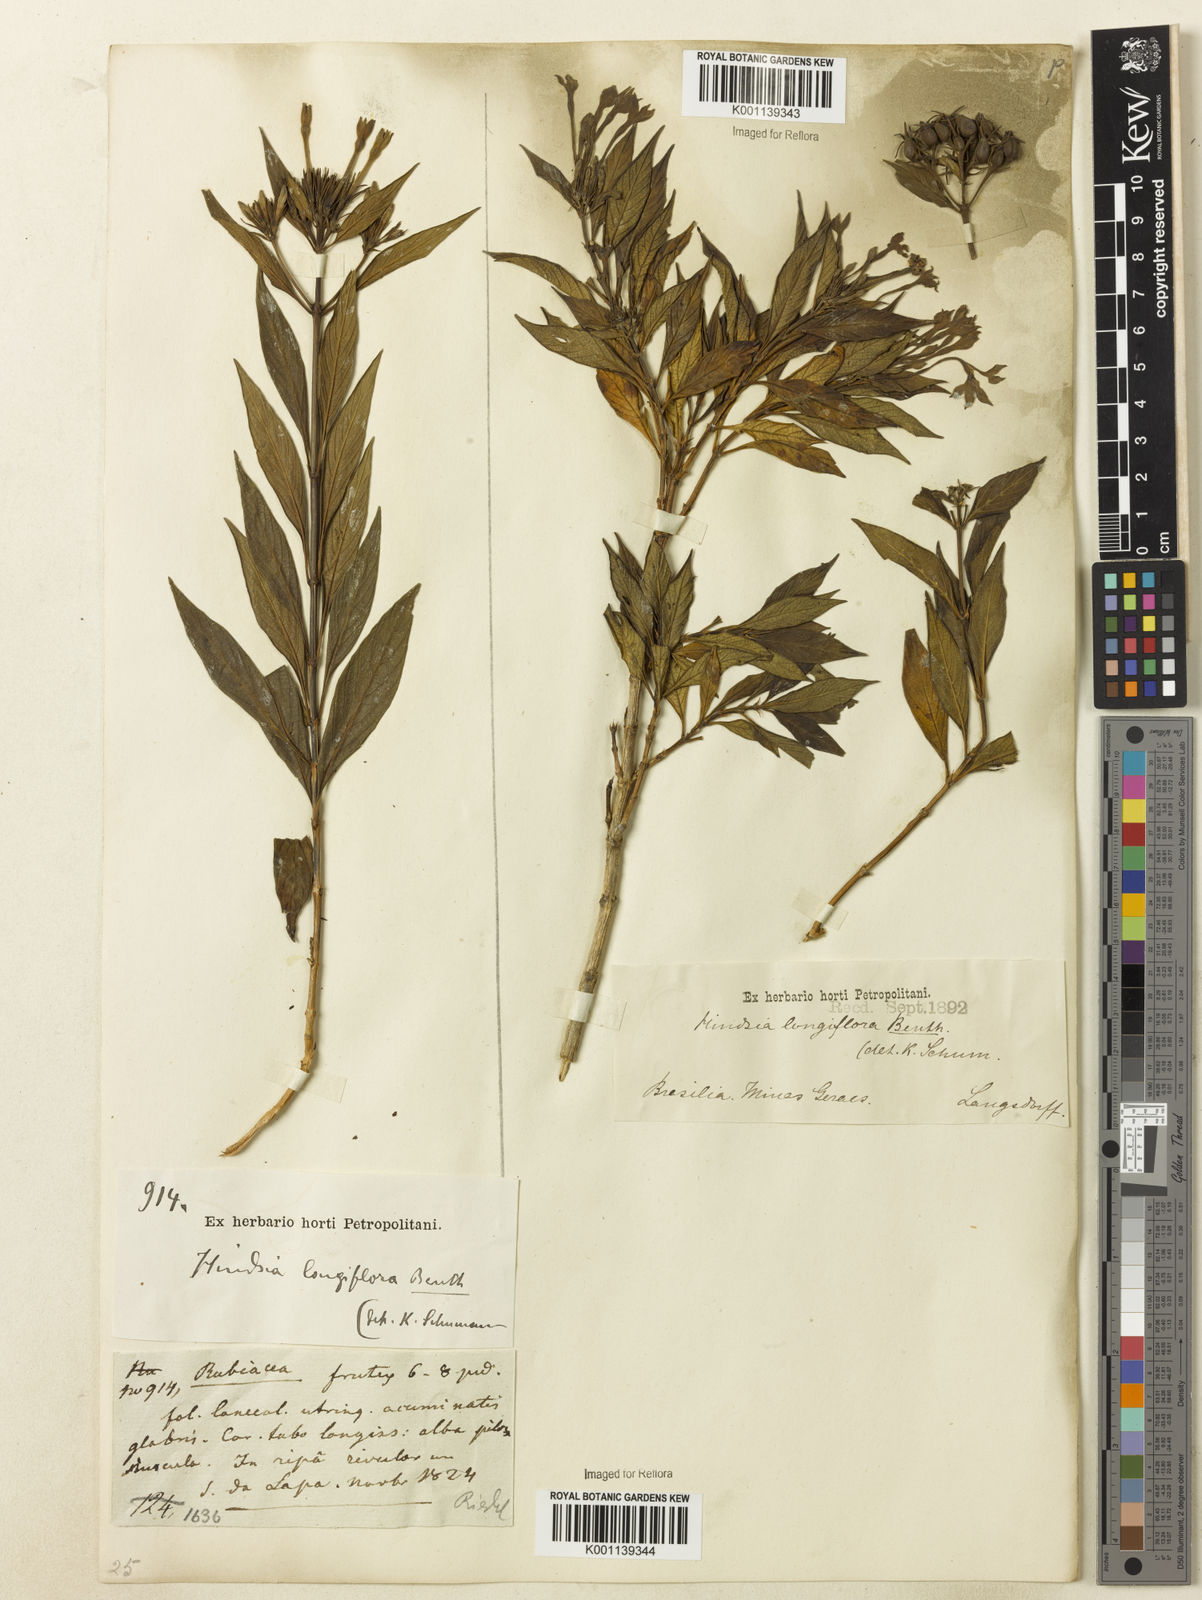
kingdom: Plantae
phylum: Tracheophyta
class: Magnoliopsida
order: Gentianales
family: Rubiaceae
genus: Hindsia
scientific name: Hindsia
